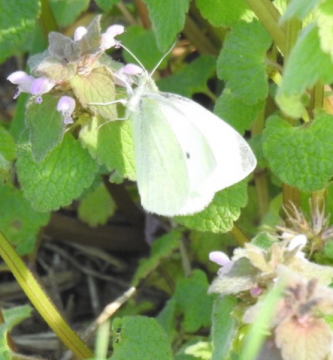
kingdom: Animalia
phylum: Arthropoda
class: Insecta
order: Lepidoptera
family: Pieridae
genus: Pieris
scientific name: Pieris rapae
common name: Cabbage White
